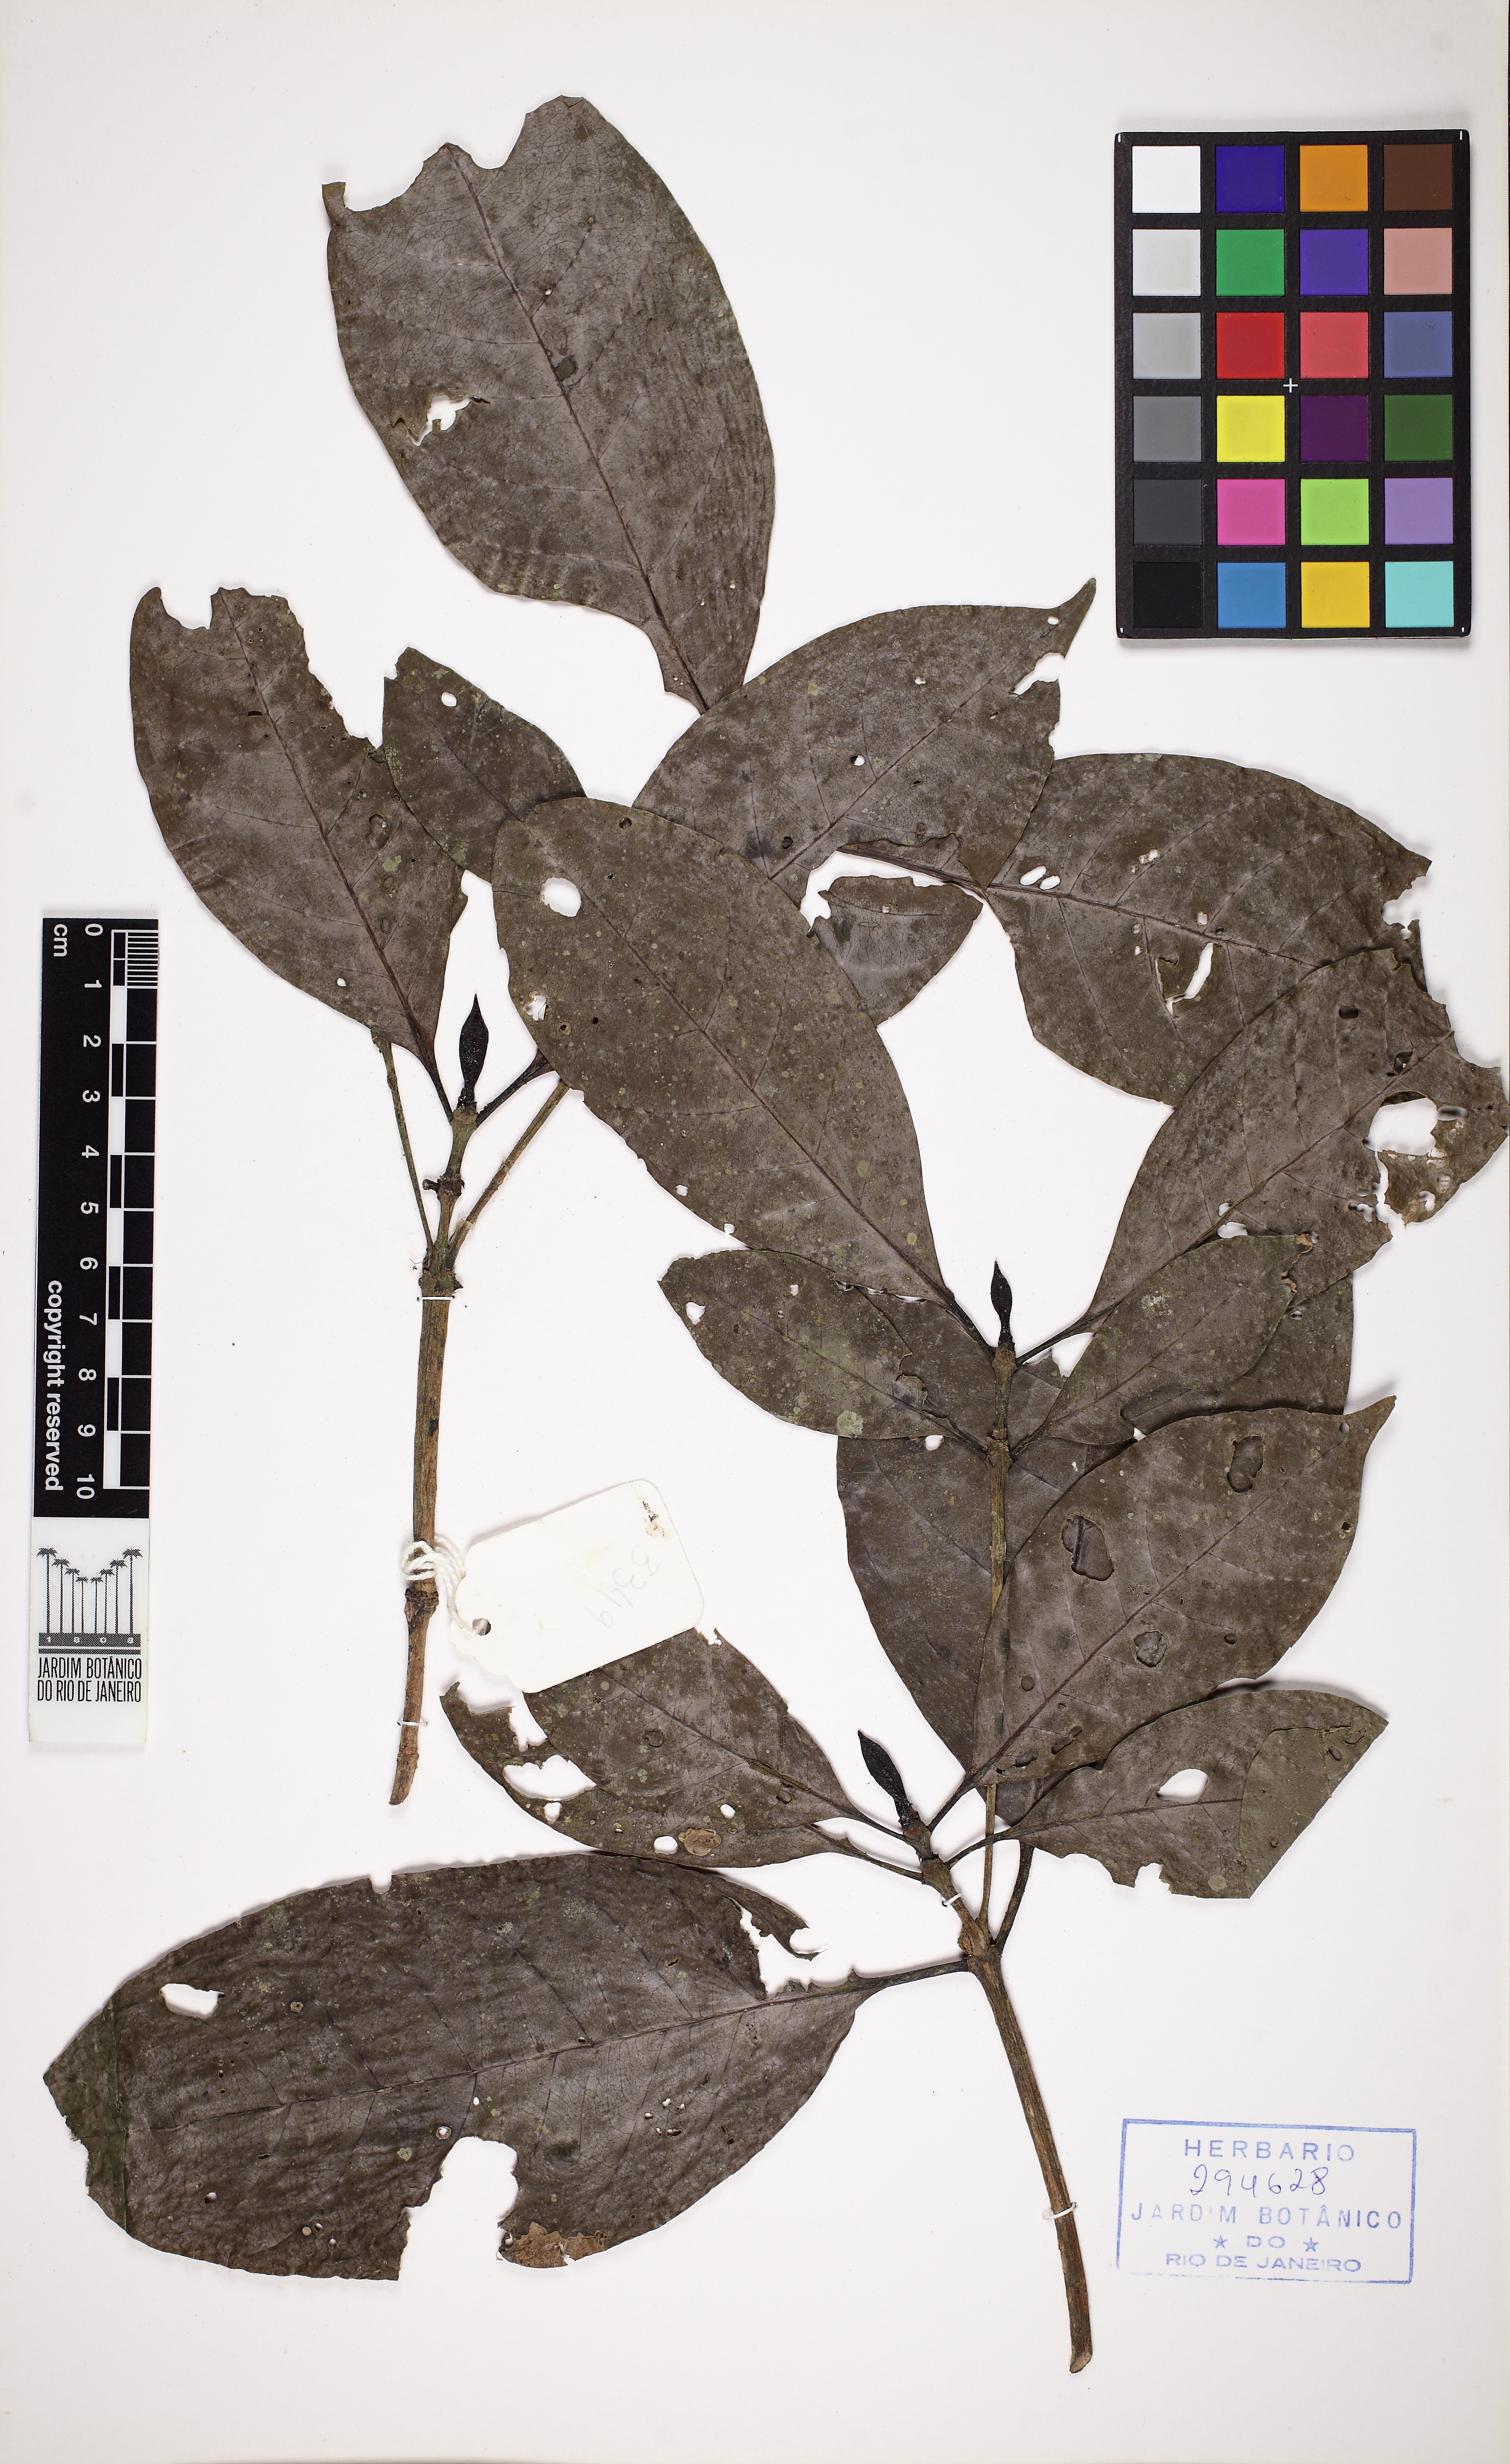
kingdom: Plantae
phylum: Tracheophyta
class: Magnoliopsida
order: Gentianales
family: Rubiaceae
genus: Cordiera
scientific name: Cordiera
